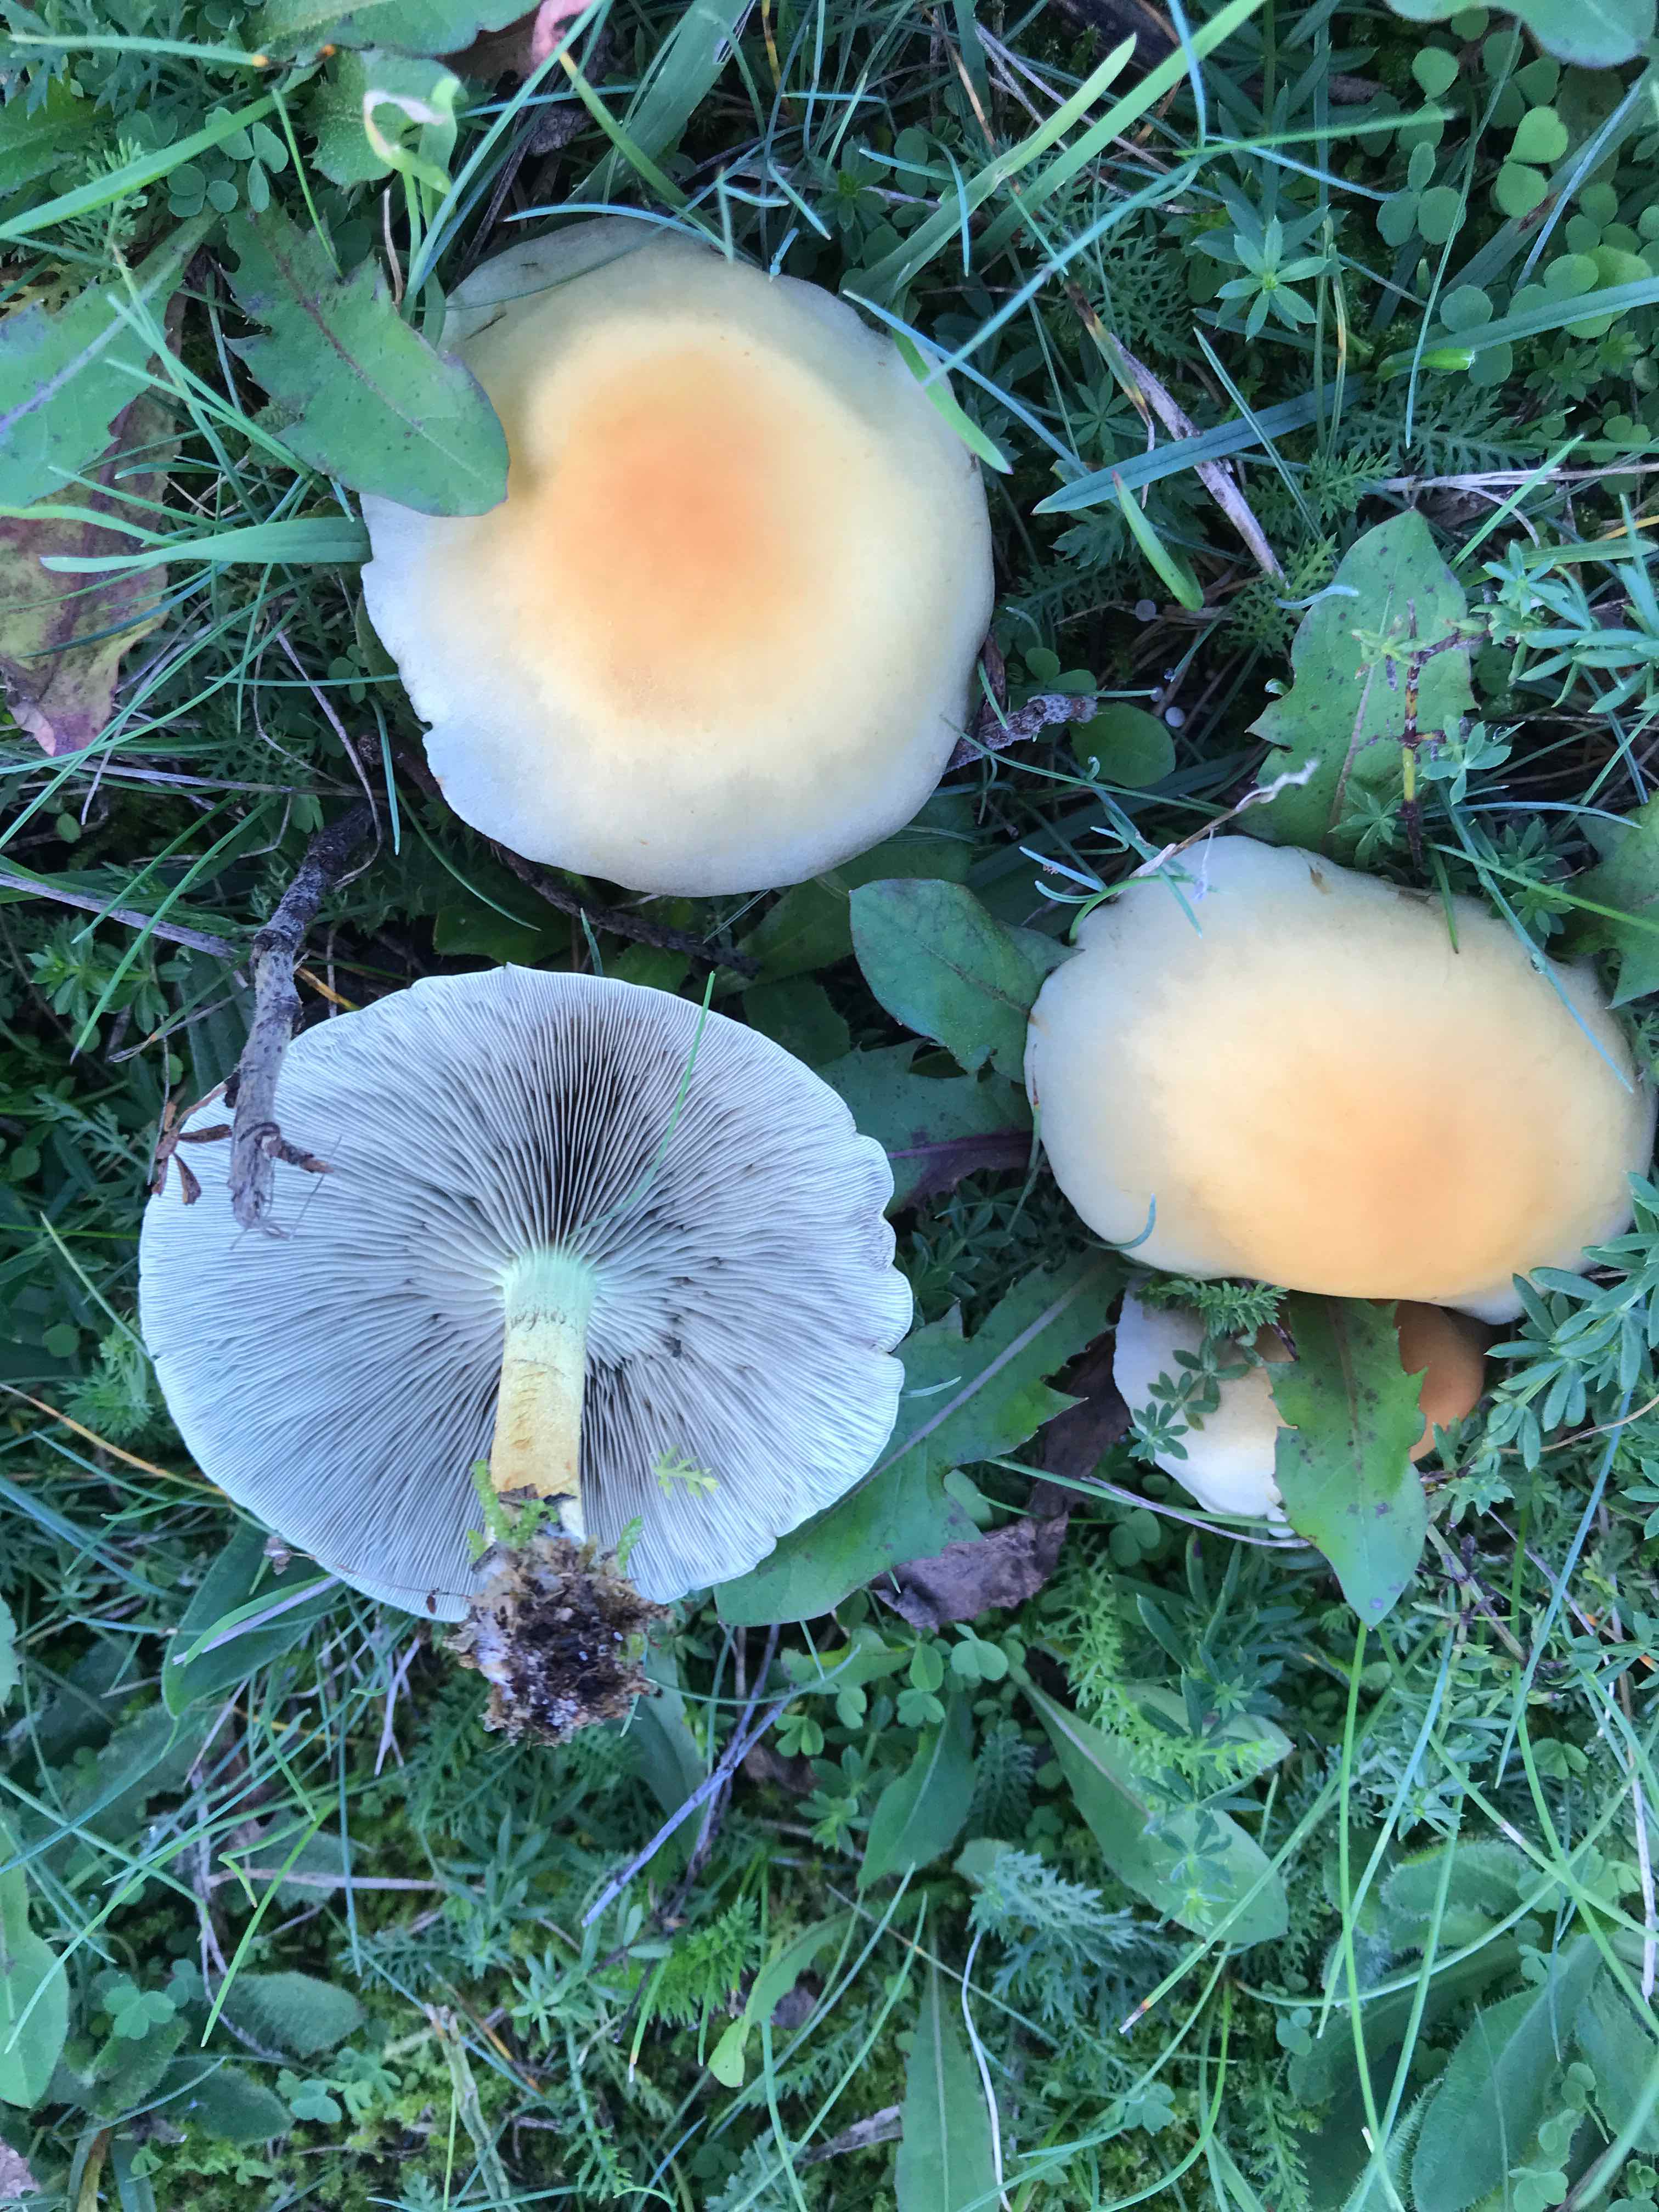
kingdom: Fungi
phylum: Basidiomycota
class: Agaricomycetes
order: Agaricales
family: Strophariaceae
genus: Hypholoma
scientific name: Hypholoma fasciculare
